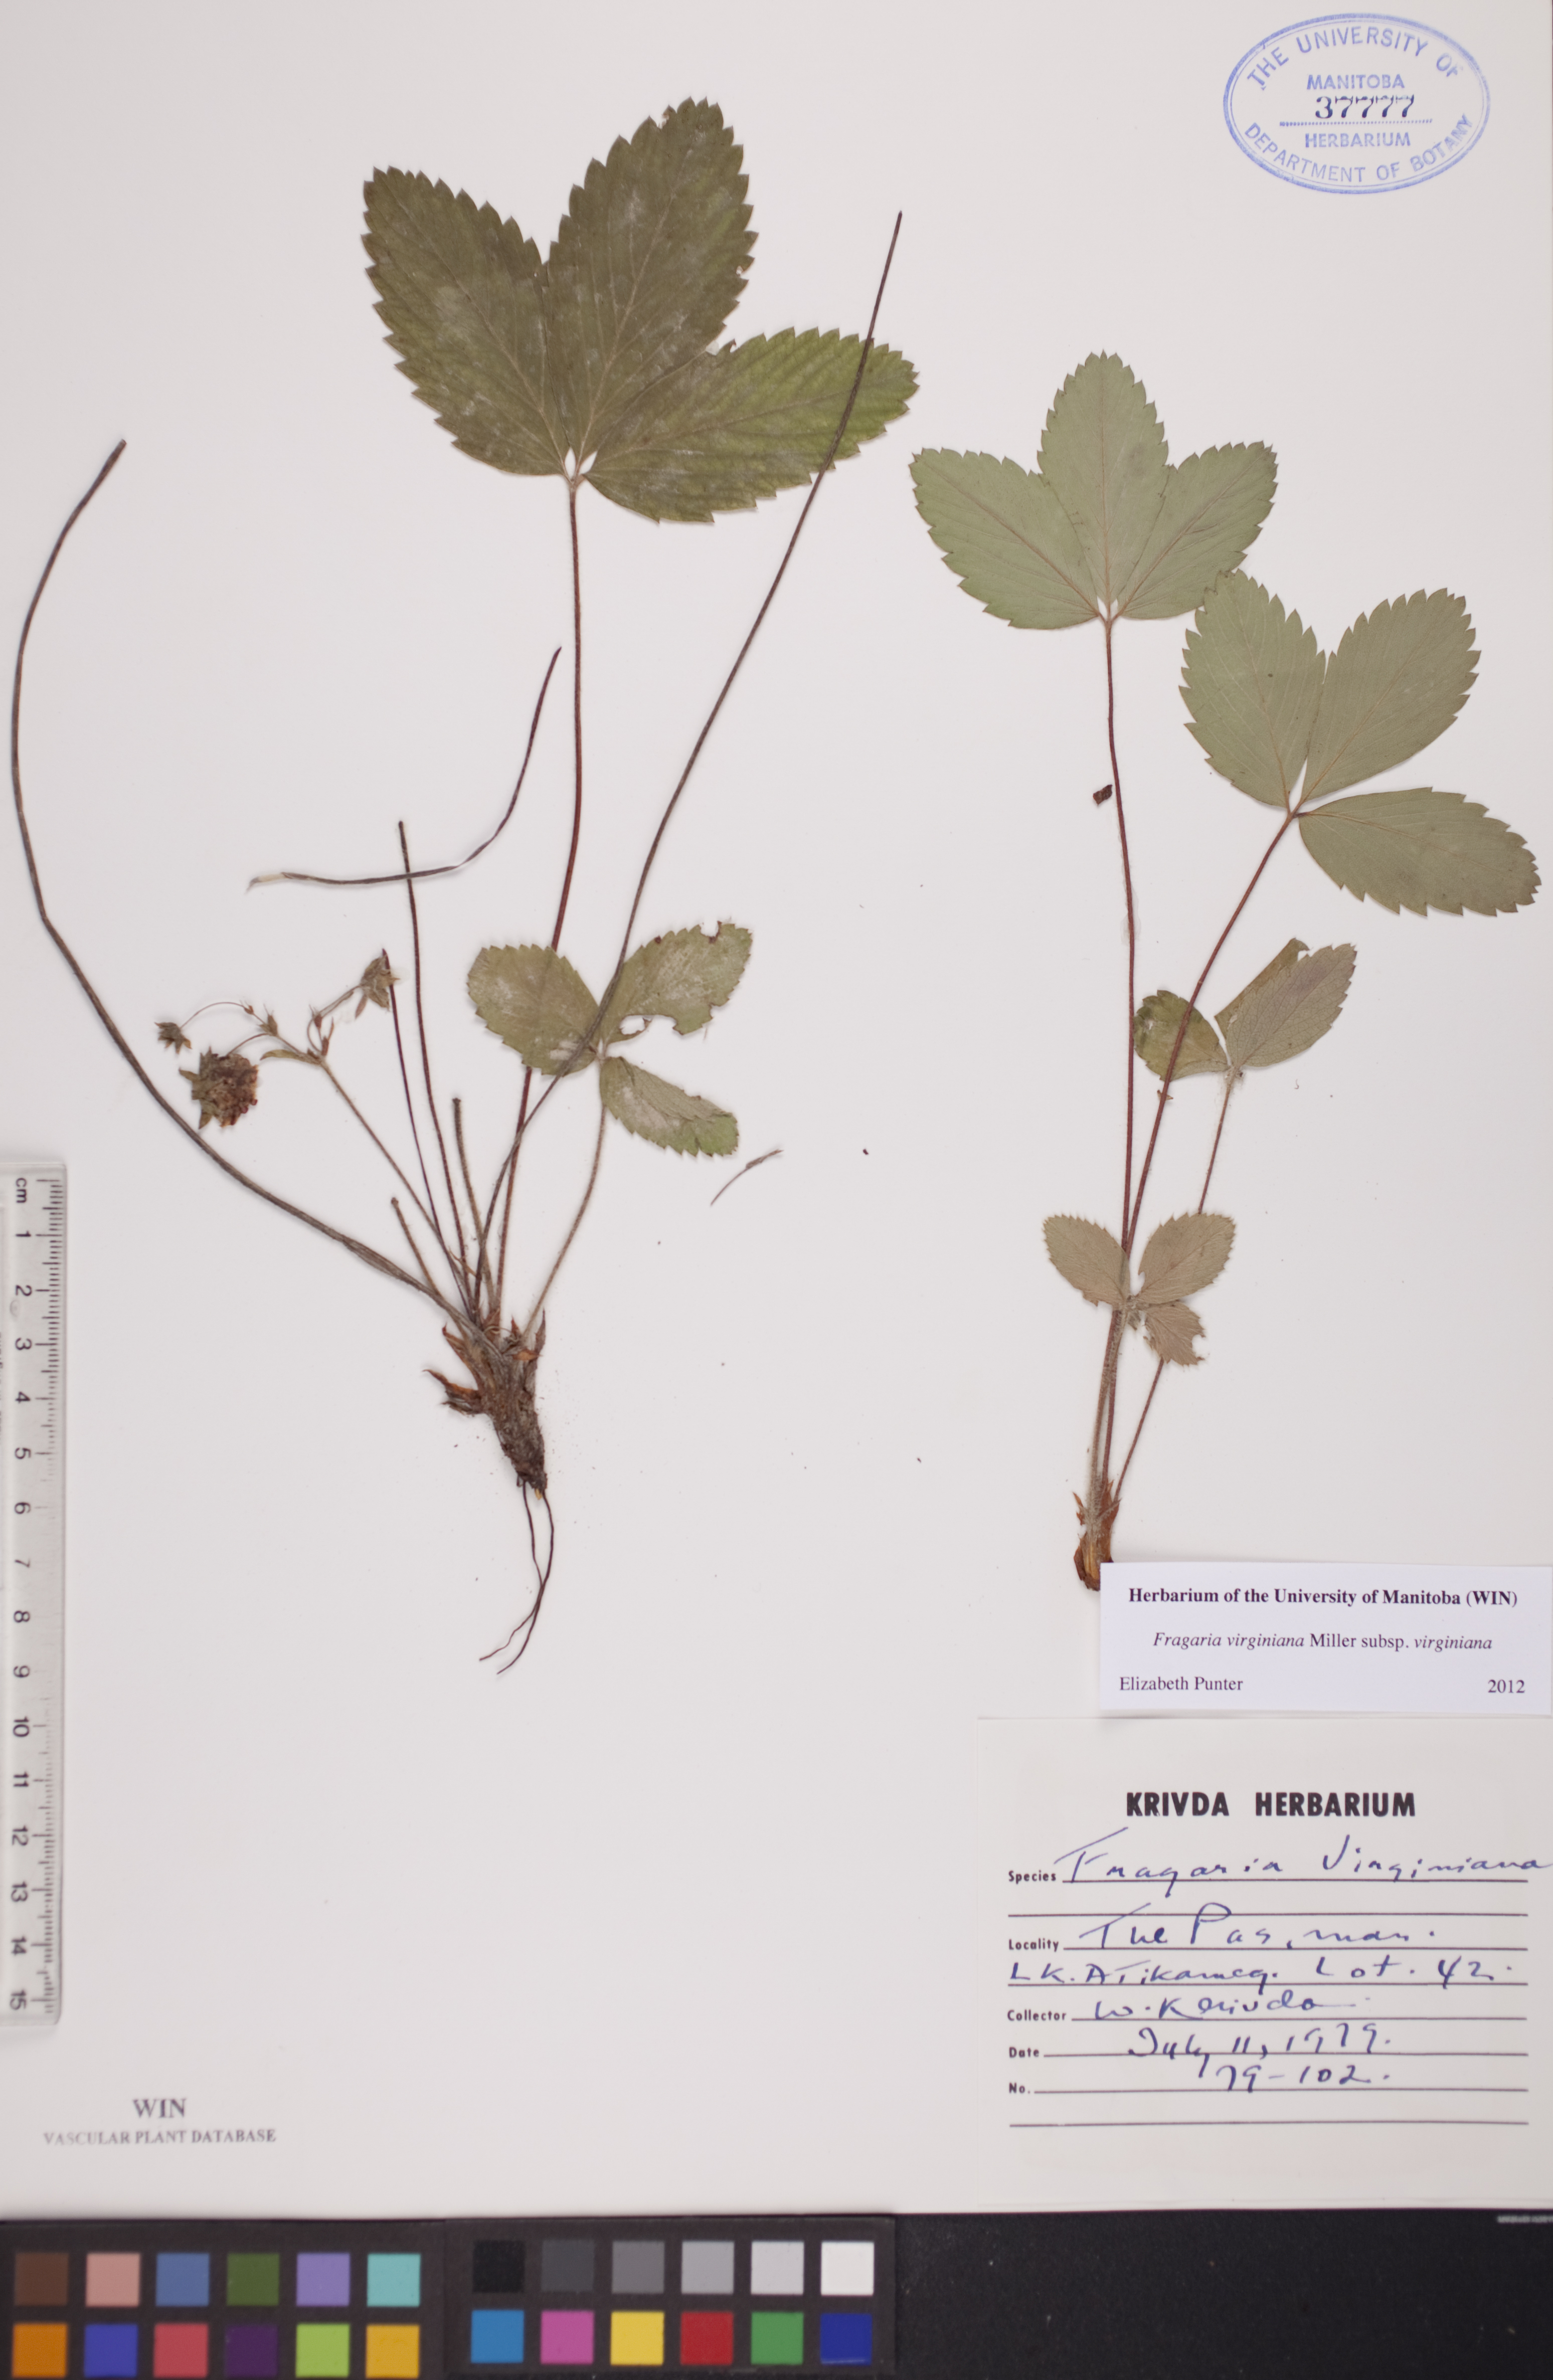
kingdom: Plantae
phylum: Tracheophyta
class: Magnoliopsida
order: Rosales
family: Rosaceae
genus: Fragaria
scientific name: Fragaria virginiana
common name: Thickleaved wild strawberry
